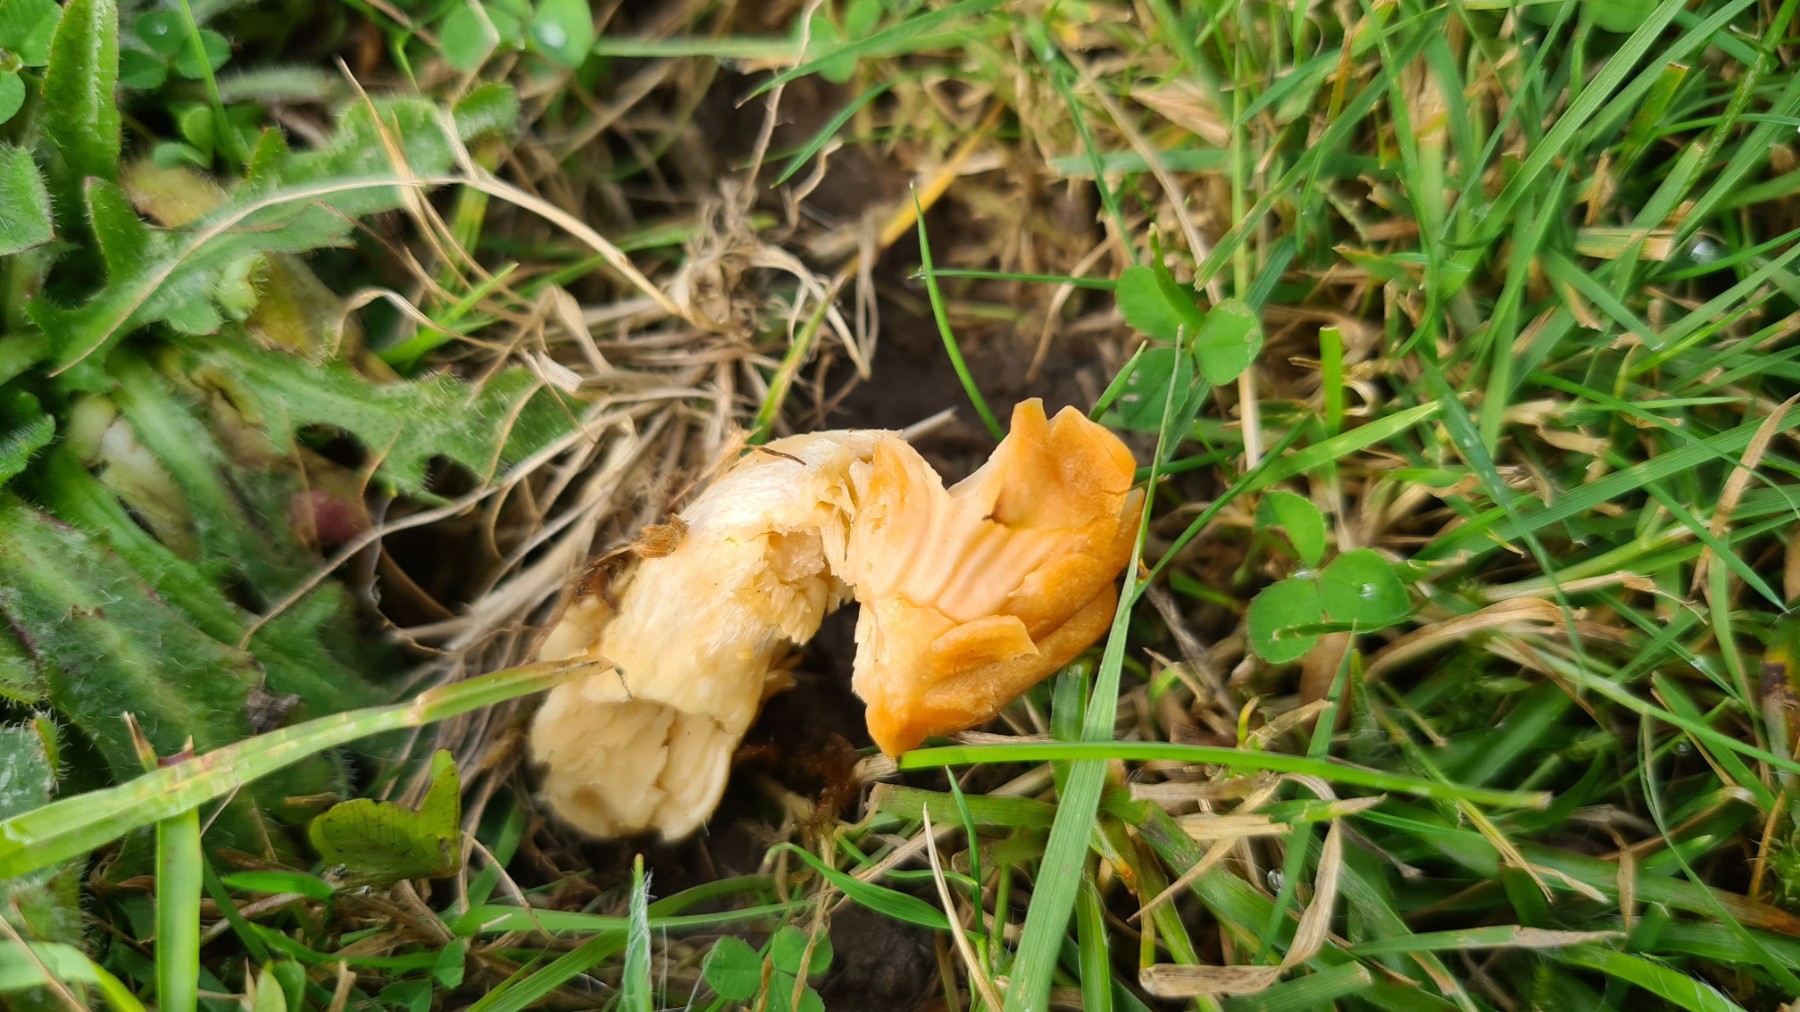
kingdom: Fungi
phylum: Basidiomycota
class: Agaricomycetes
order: Agaricales
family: Hygrophoraceae
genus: Cuphophyllus
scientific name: Cuphophyllus pratensis
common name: eng-vokshat
